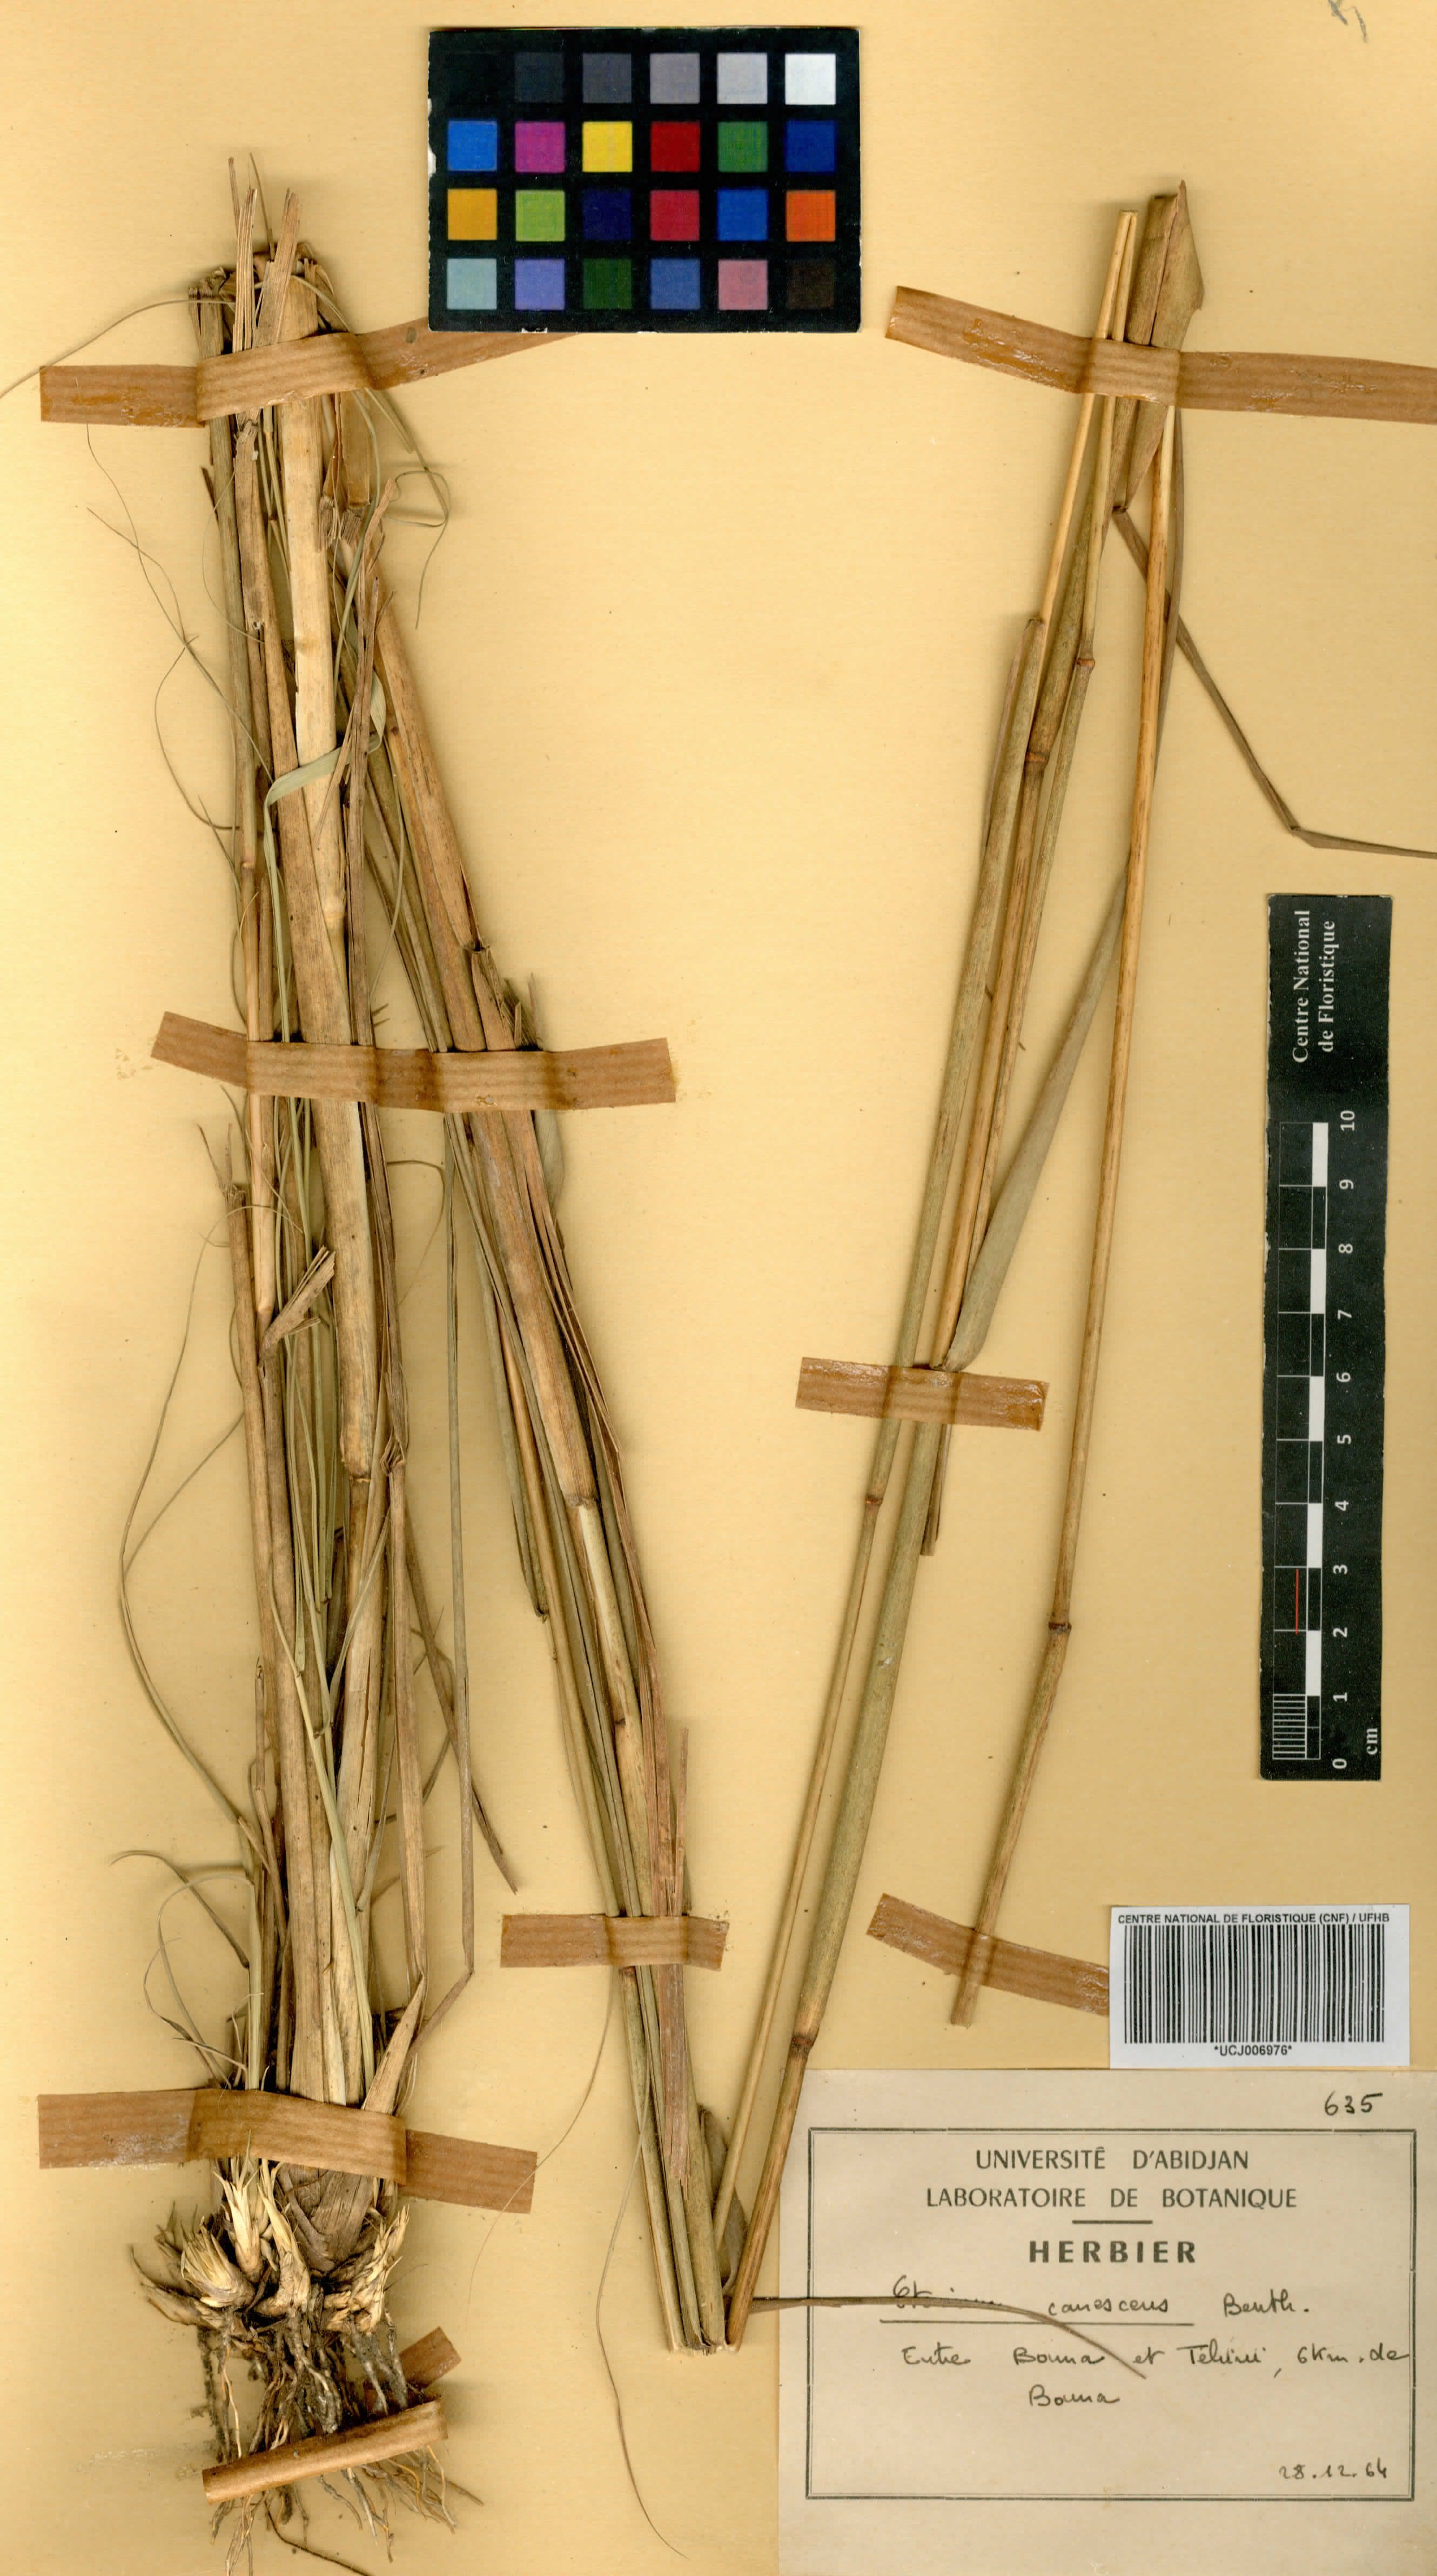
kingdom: Plantae
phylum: Tracheophyta
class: Liliopsida
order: Poales
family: Poaceae
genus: Ctenium
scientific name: Ctenium canescens
